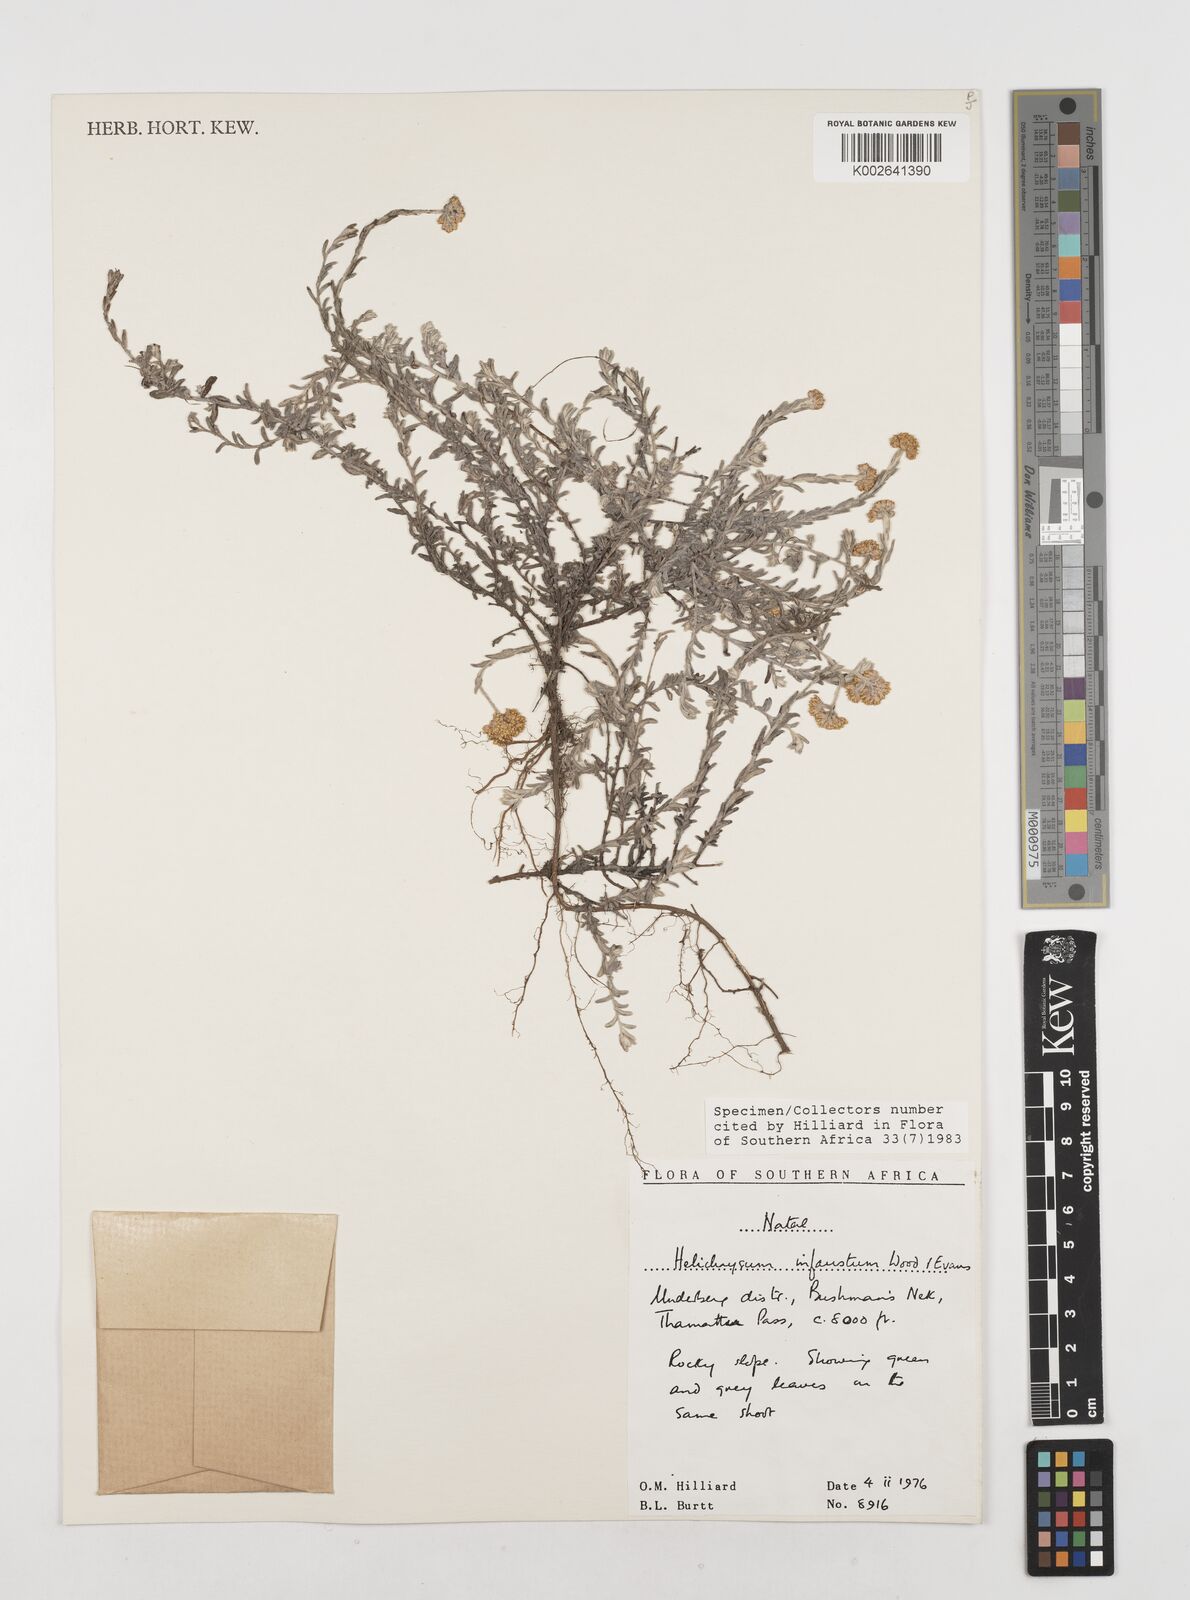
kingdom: Plantae
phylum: Tracheophyta
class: Magnoliopsida
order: Asterales
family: Asteraceae
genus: Calomeria
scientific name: Calomeria infausta
